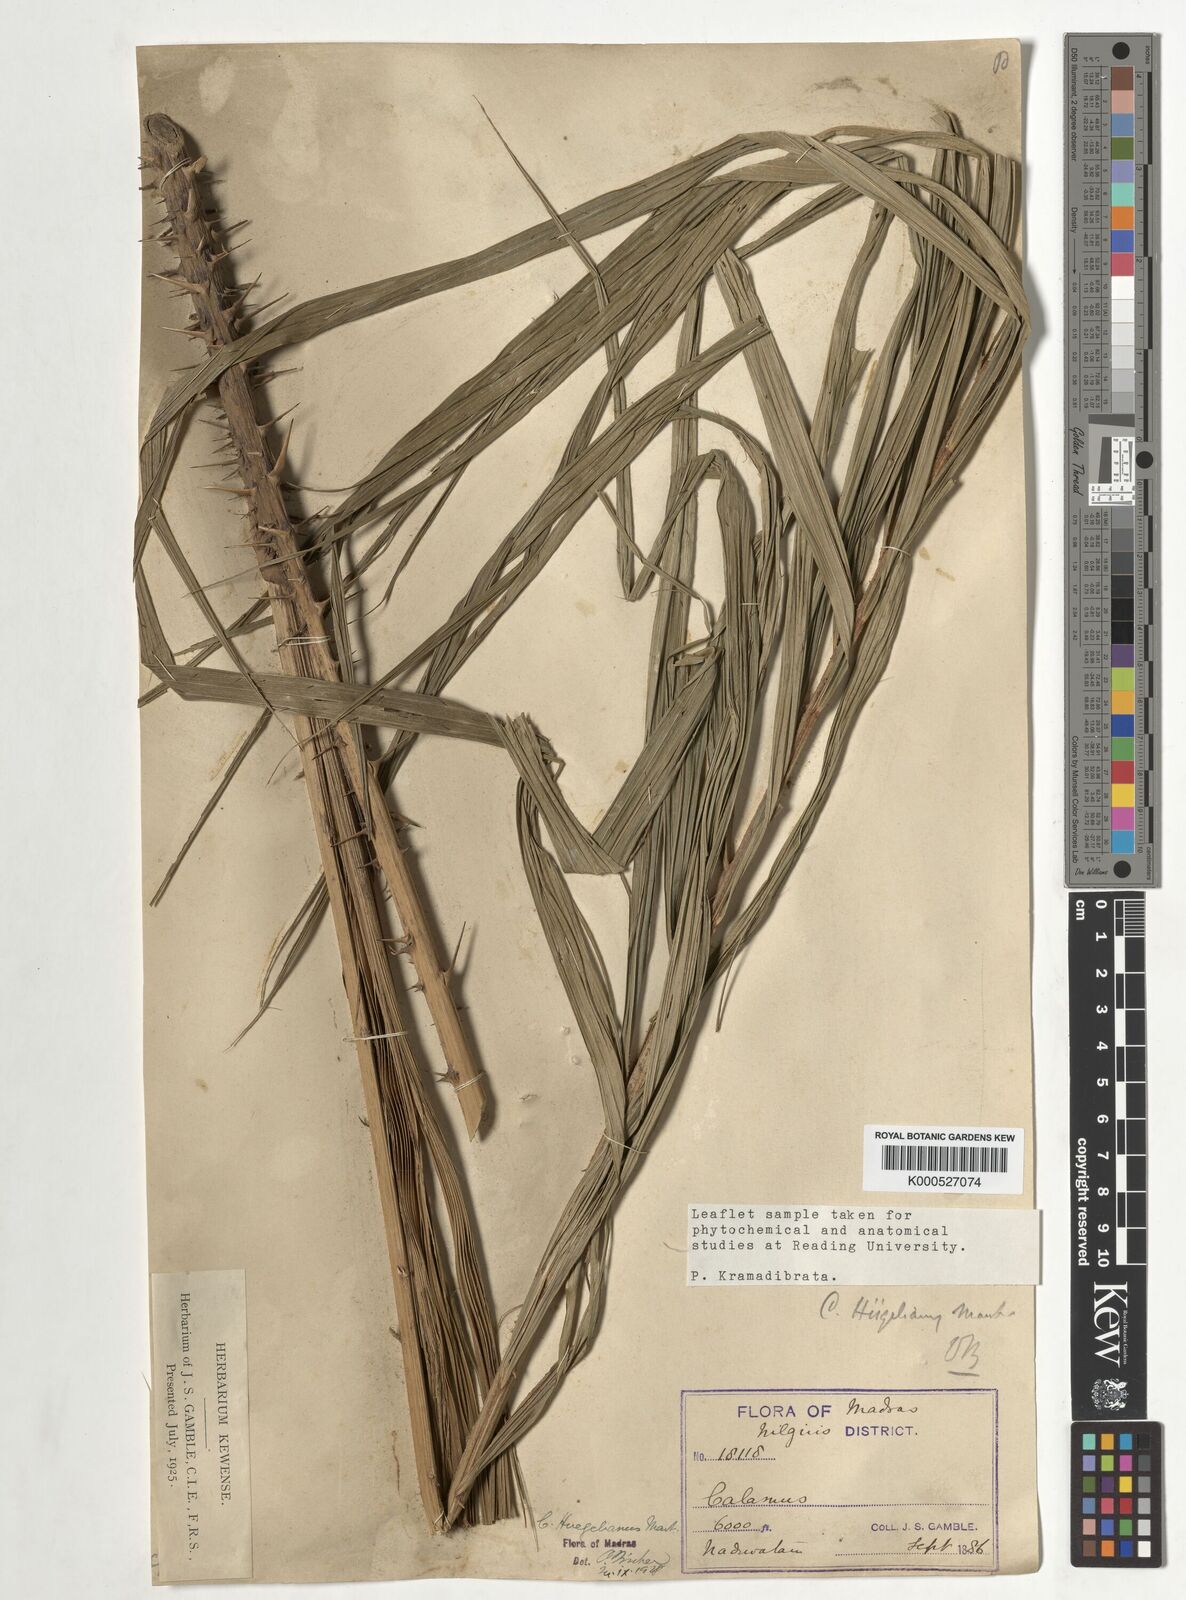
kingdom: Plantae
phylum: Tracheophyta
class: Liliopsida
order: Arecales
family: Arecaceae
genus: Calamus
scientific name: Calamus wightii
